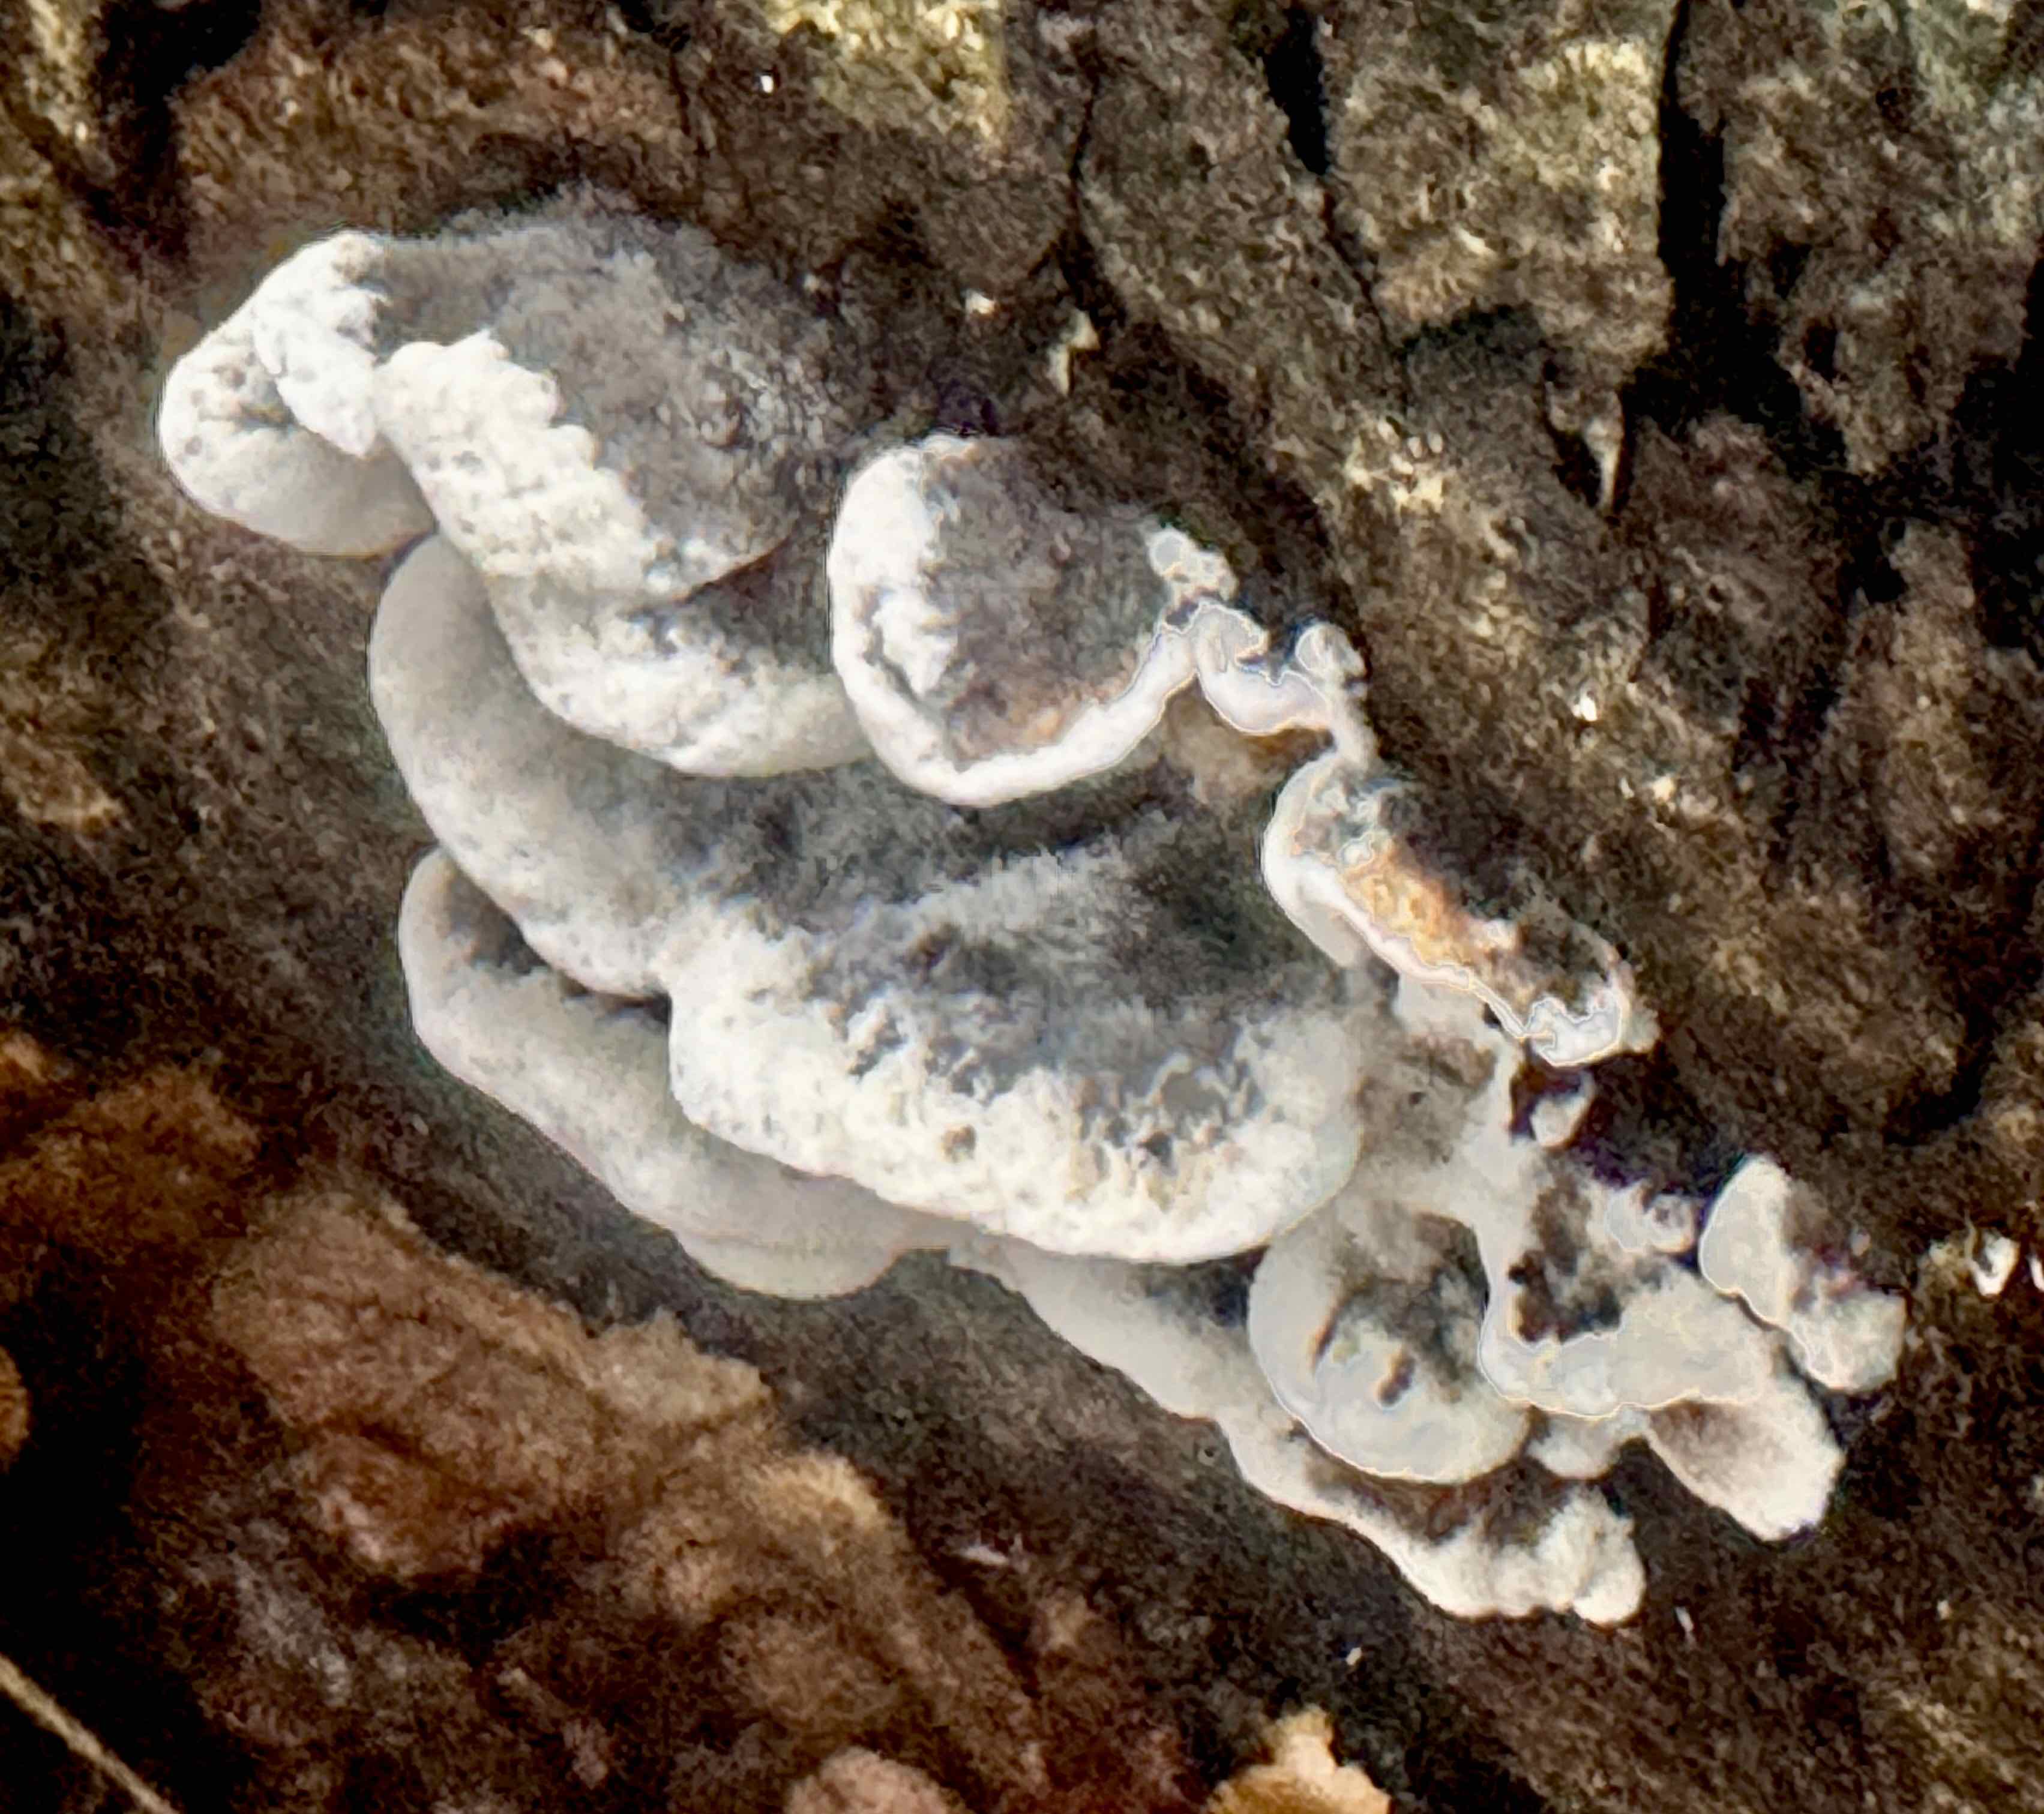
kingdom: Fungi
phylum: Basidiomycota
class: Agaricomycetes
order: Polyporales
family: Phanerochaetaceae
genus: Bjerkandera
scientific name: Bjerkandera adusta
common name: sveden sodporesvamp
